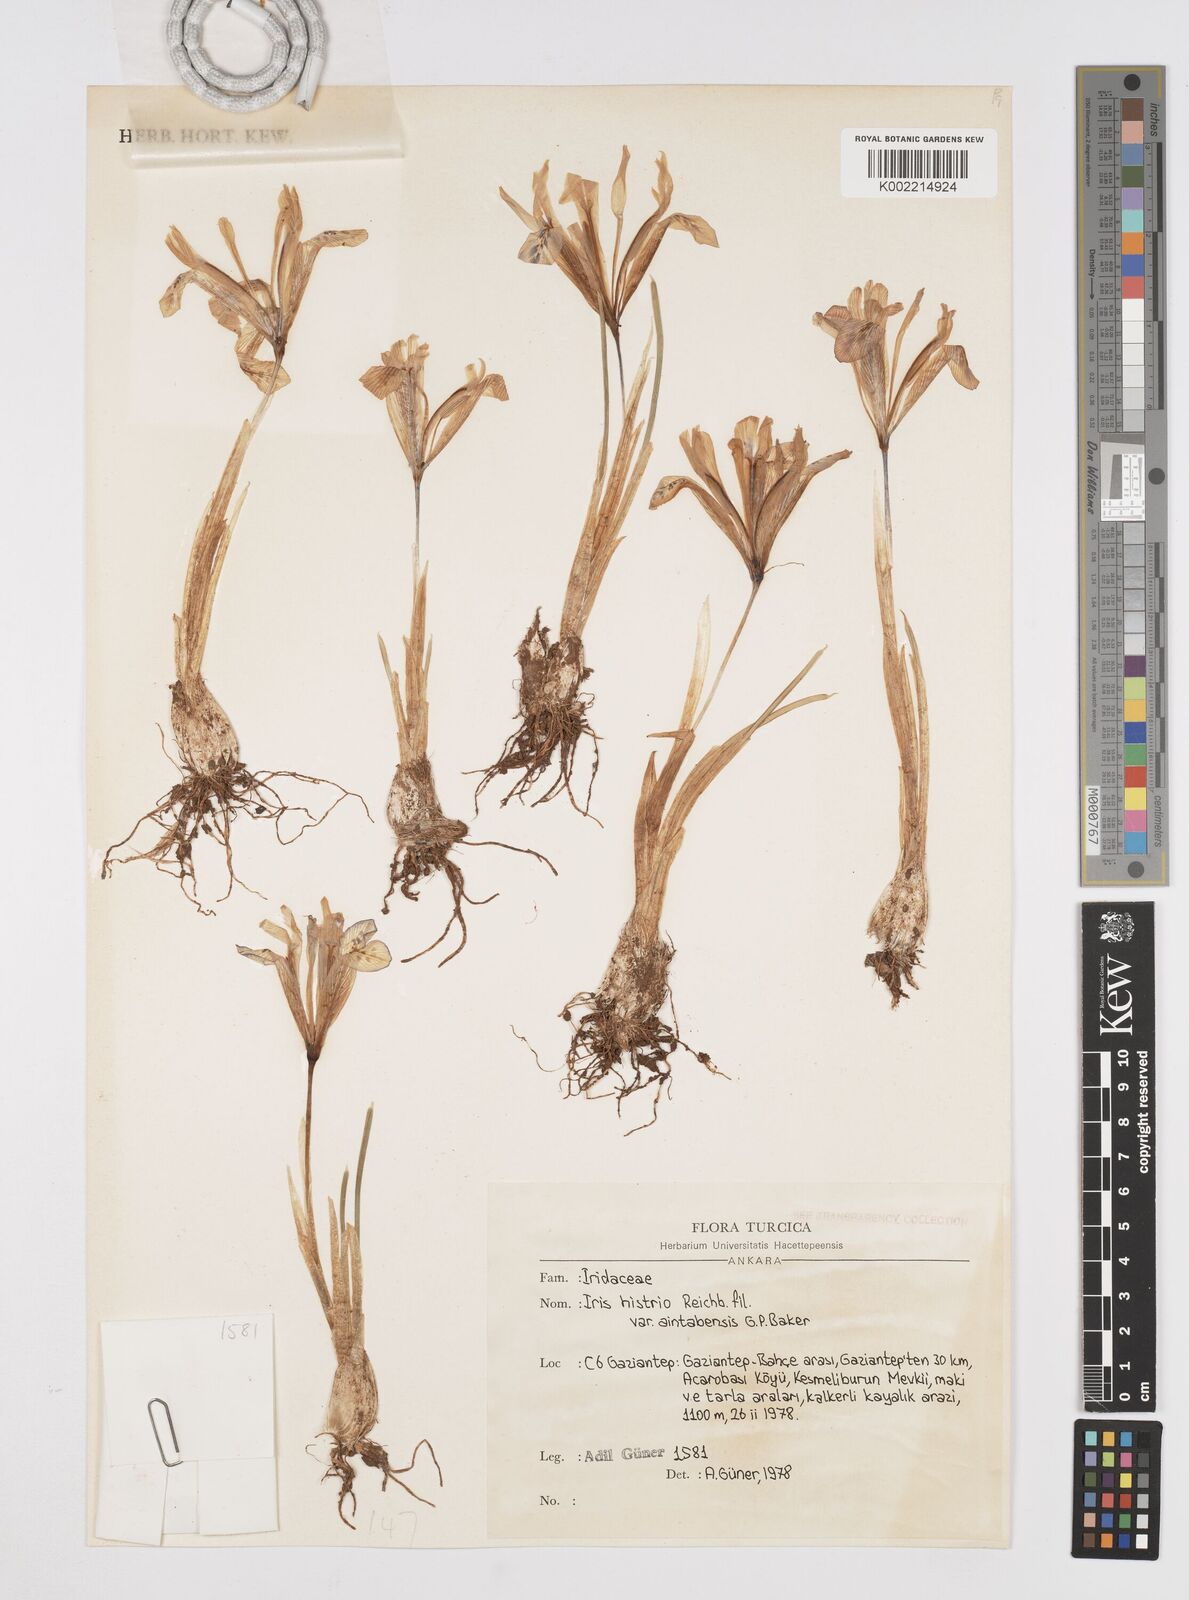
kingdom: Plantae
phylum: Tracheophyta
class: Liliopsida
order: Asparagales
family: Iridaceae
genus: Iris
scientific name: Iris histrio
